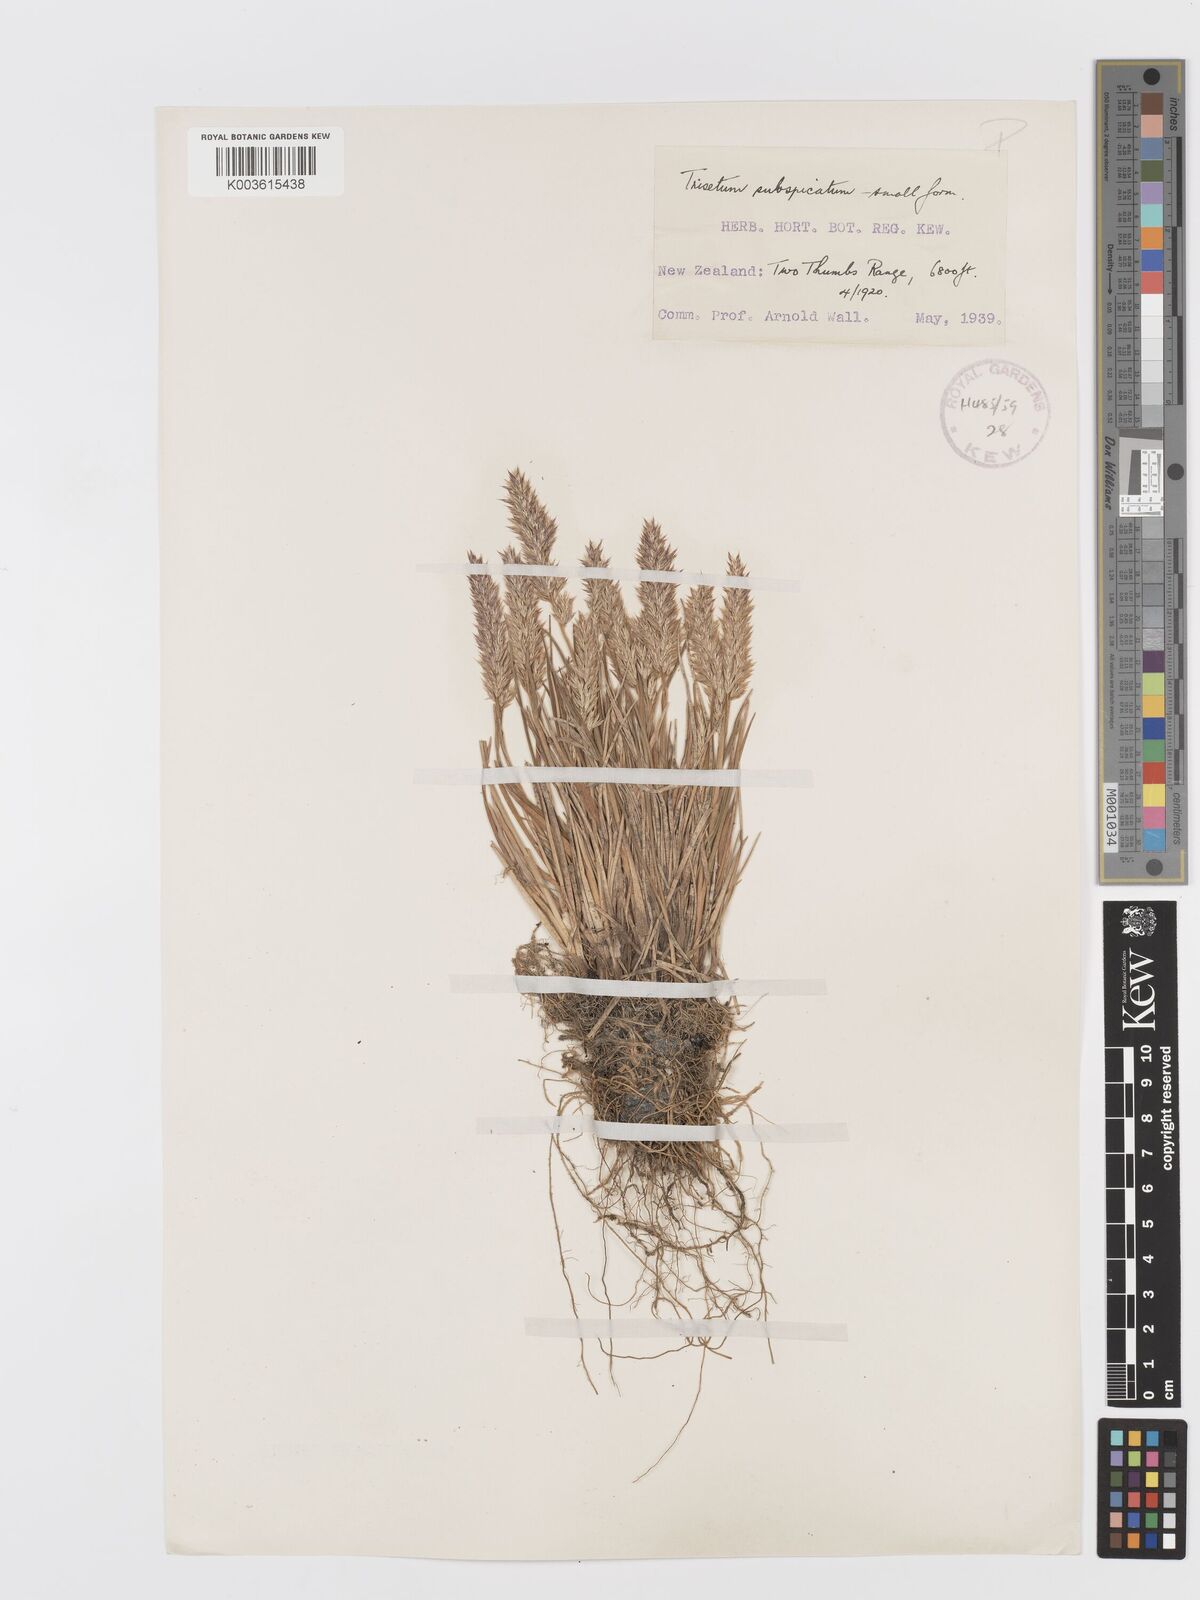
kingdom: Plantae
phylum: Tracheophyta
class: Liliopsida
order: Poales
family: Poaceae
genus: Koeleria
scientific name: Koeleria spicata
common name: Mountain trisetum
